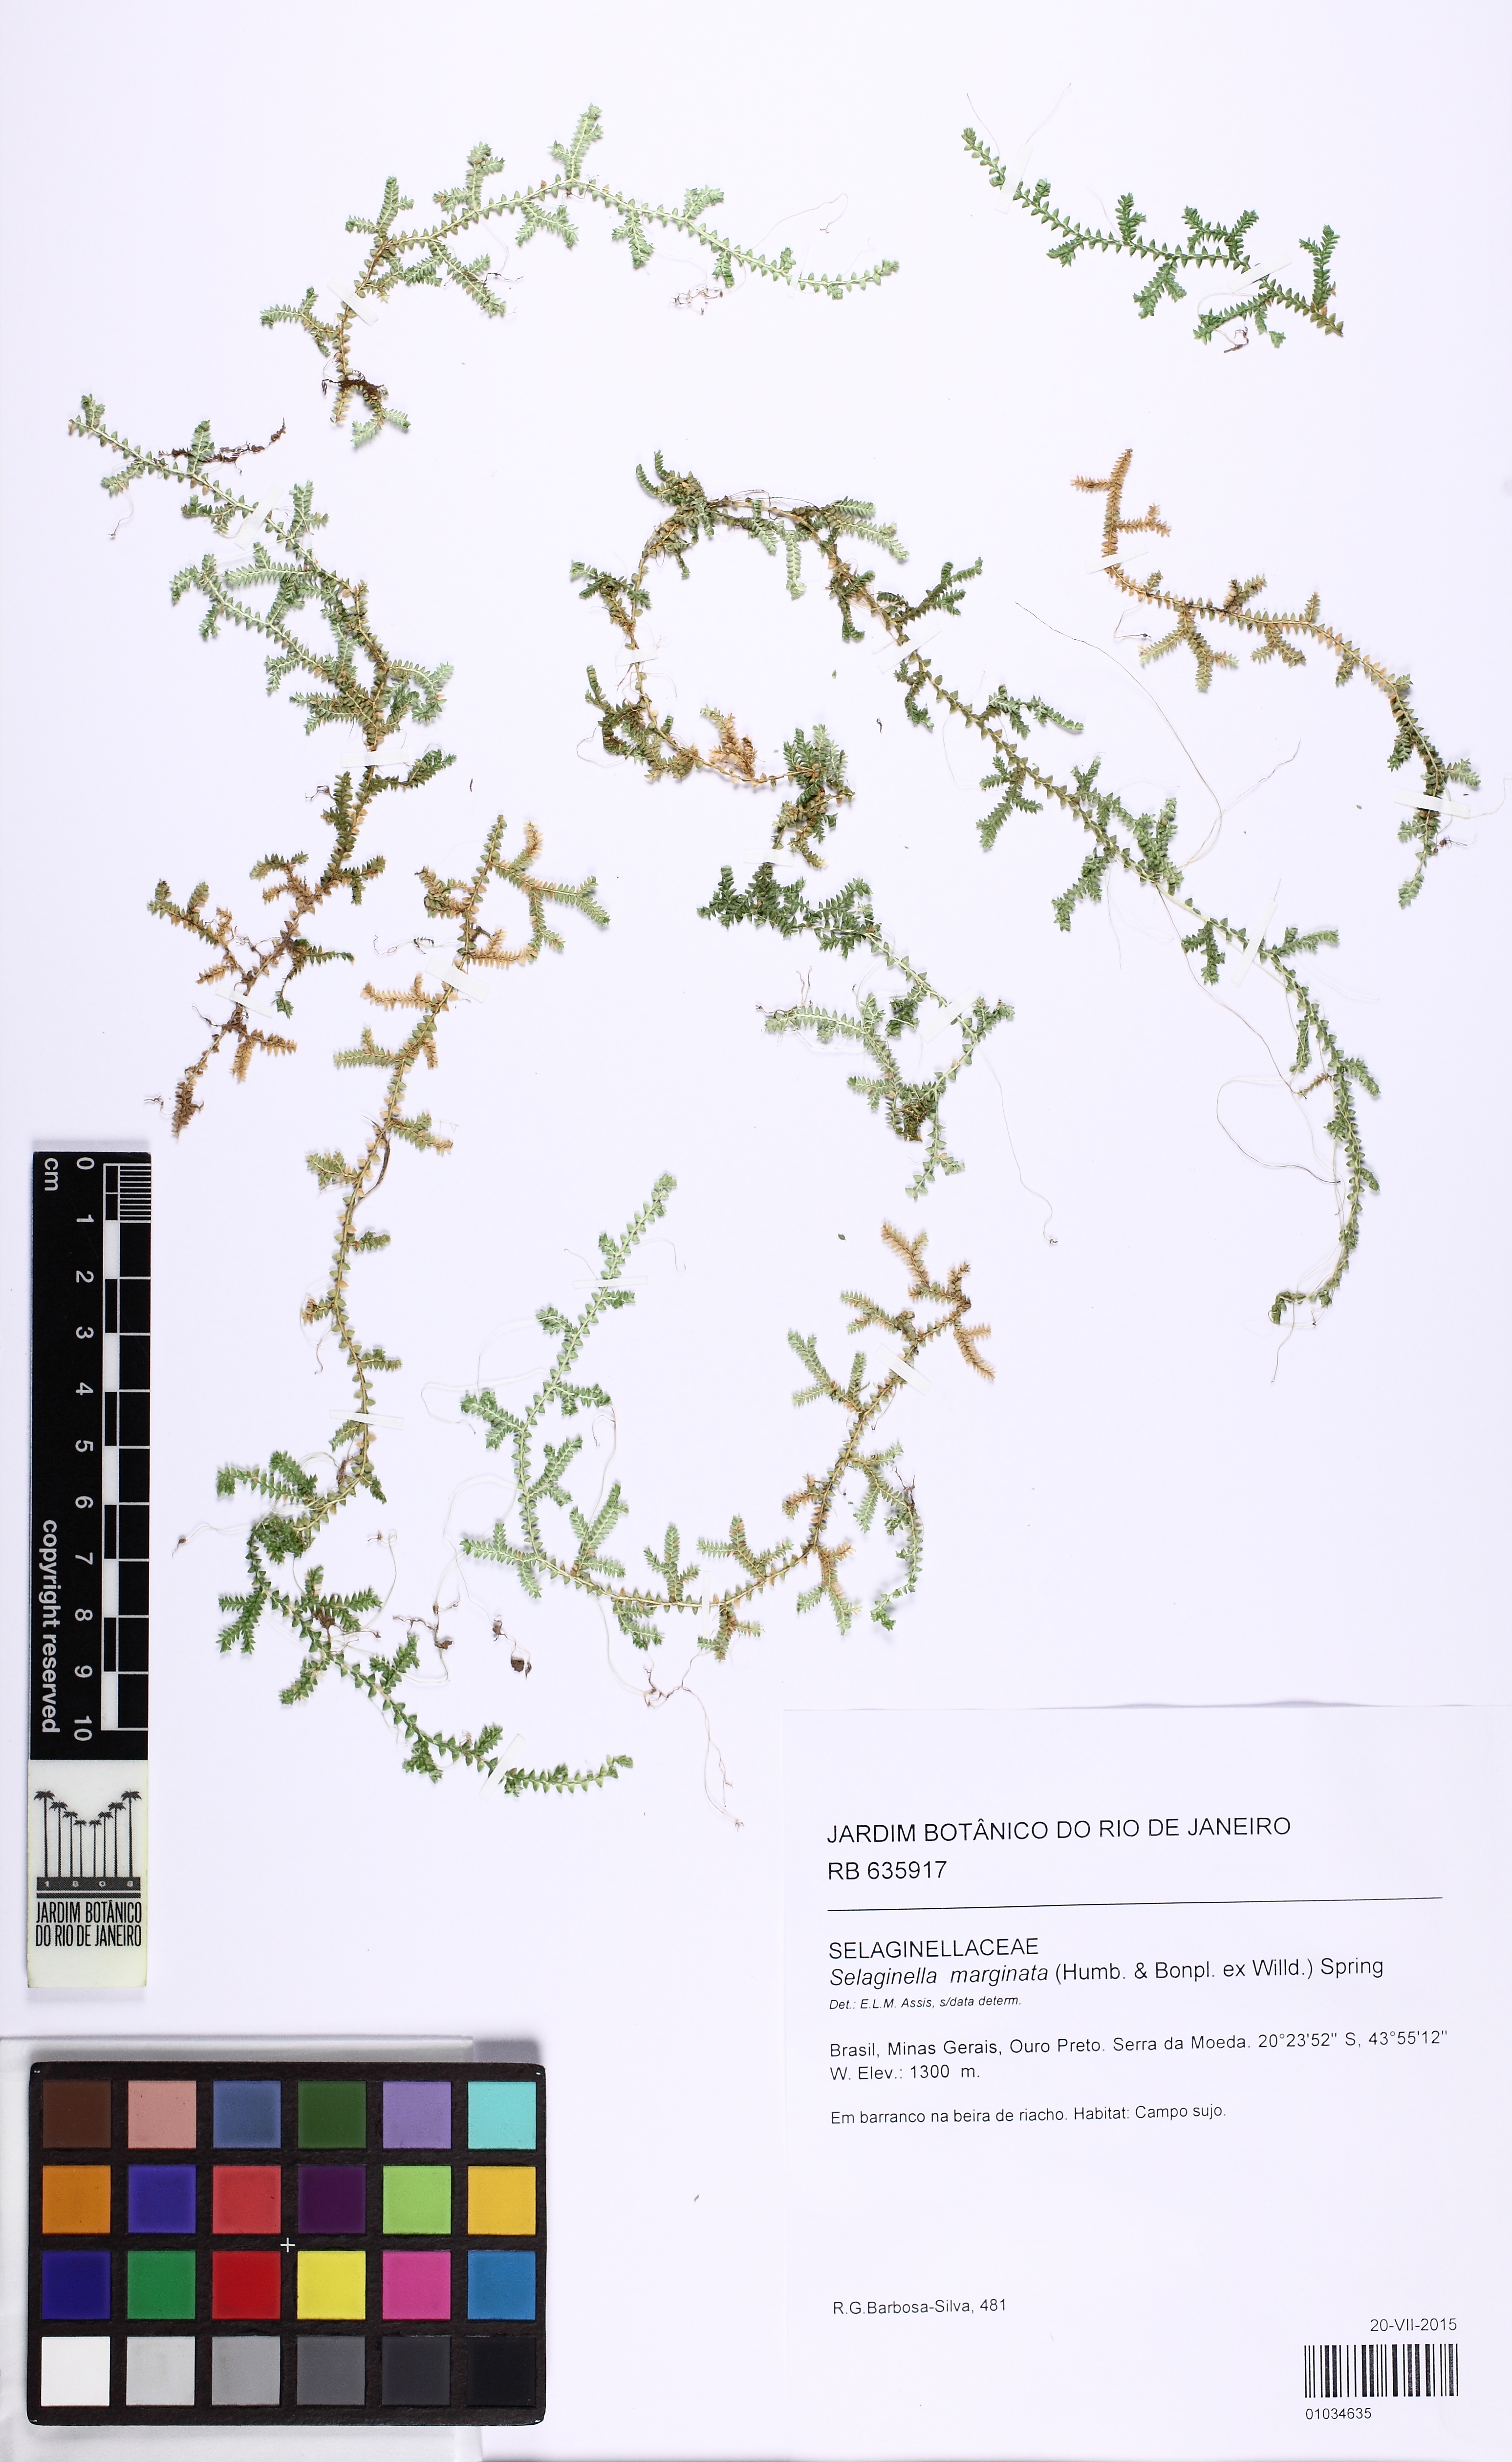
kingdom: Plantae
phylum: Tracheophyta
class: Lycopodiopsida
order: Selaginellales
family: Selaginellaceae
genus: Selaginella
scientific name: Selaginella marginata
